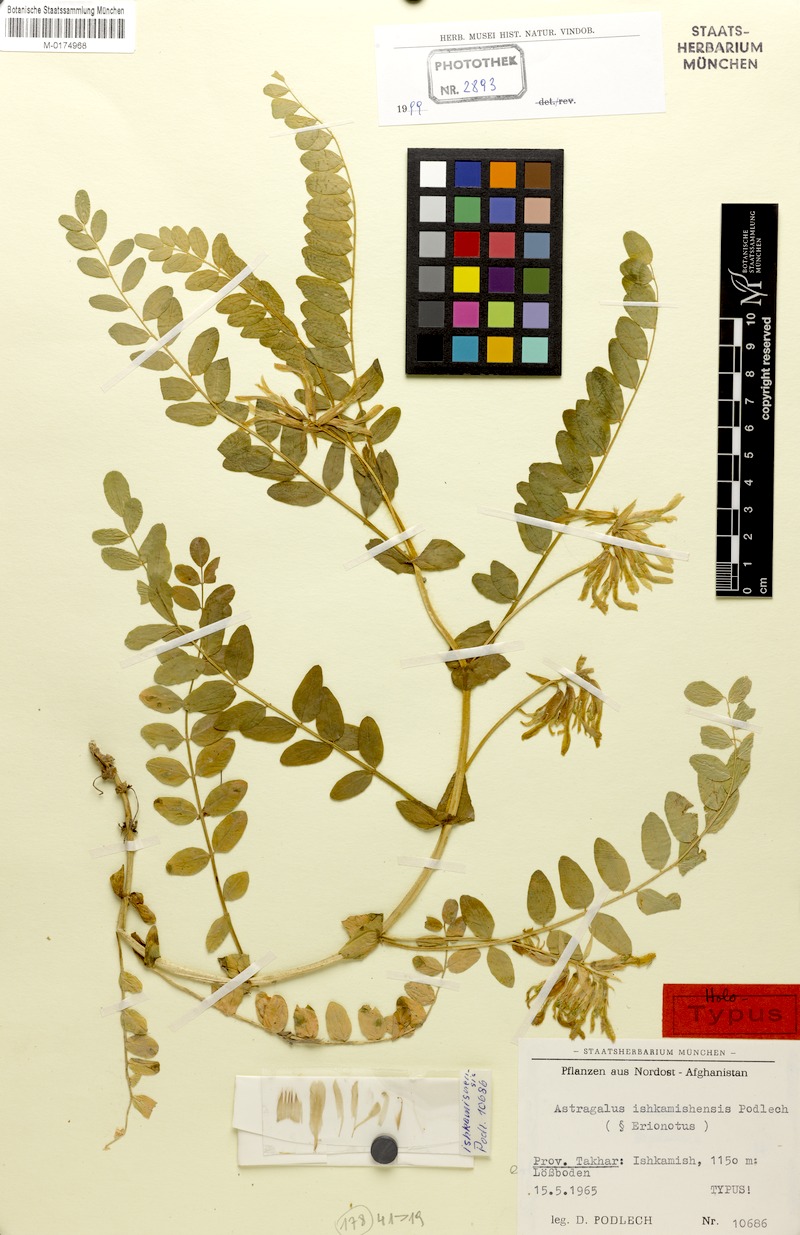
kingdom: Plantae
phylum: Tracheophyta
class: Magnoliopsida
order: Fabales
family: Fabaceae
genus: Astragalus
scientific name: Astragalus ishkamishensis
